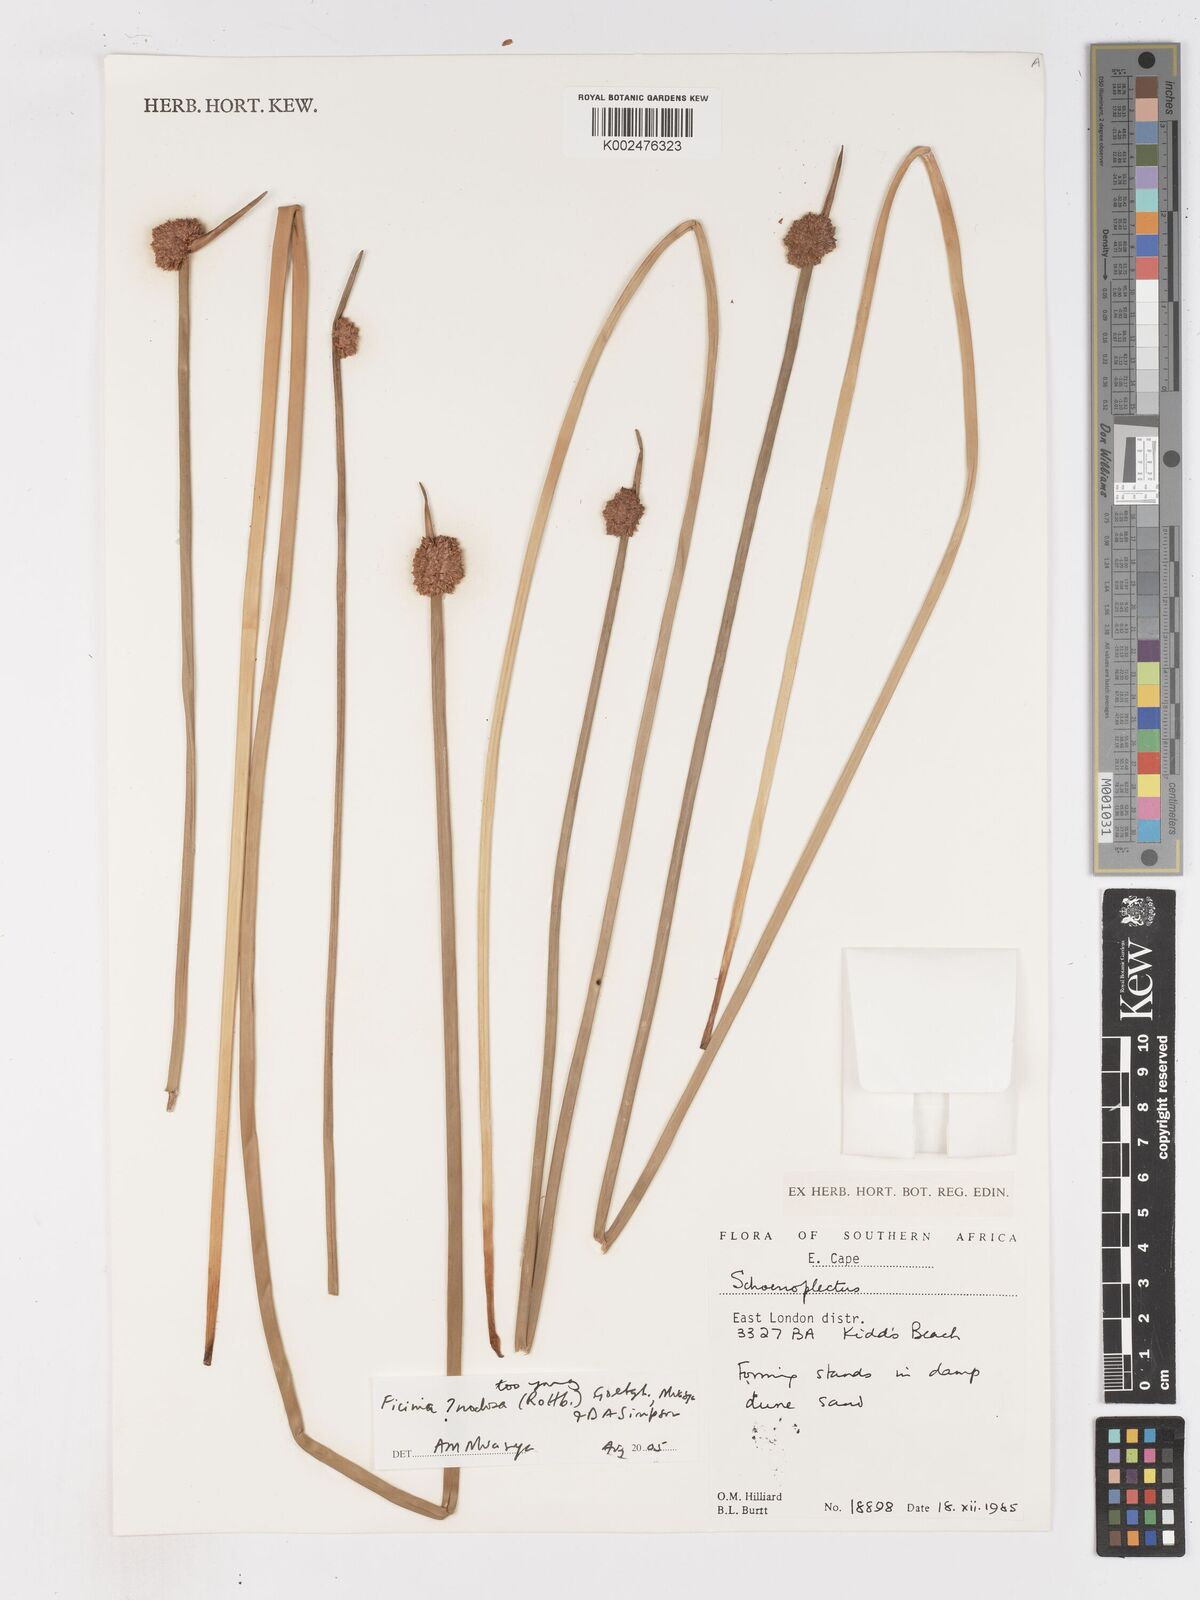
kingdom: Plantae
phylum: Tracheophyta
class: Liliopsida
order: Poales
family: Cyperaceae
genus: Ficinia
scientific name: Ficinia nodosa
